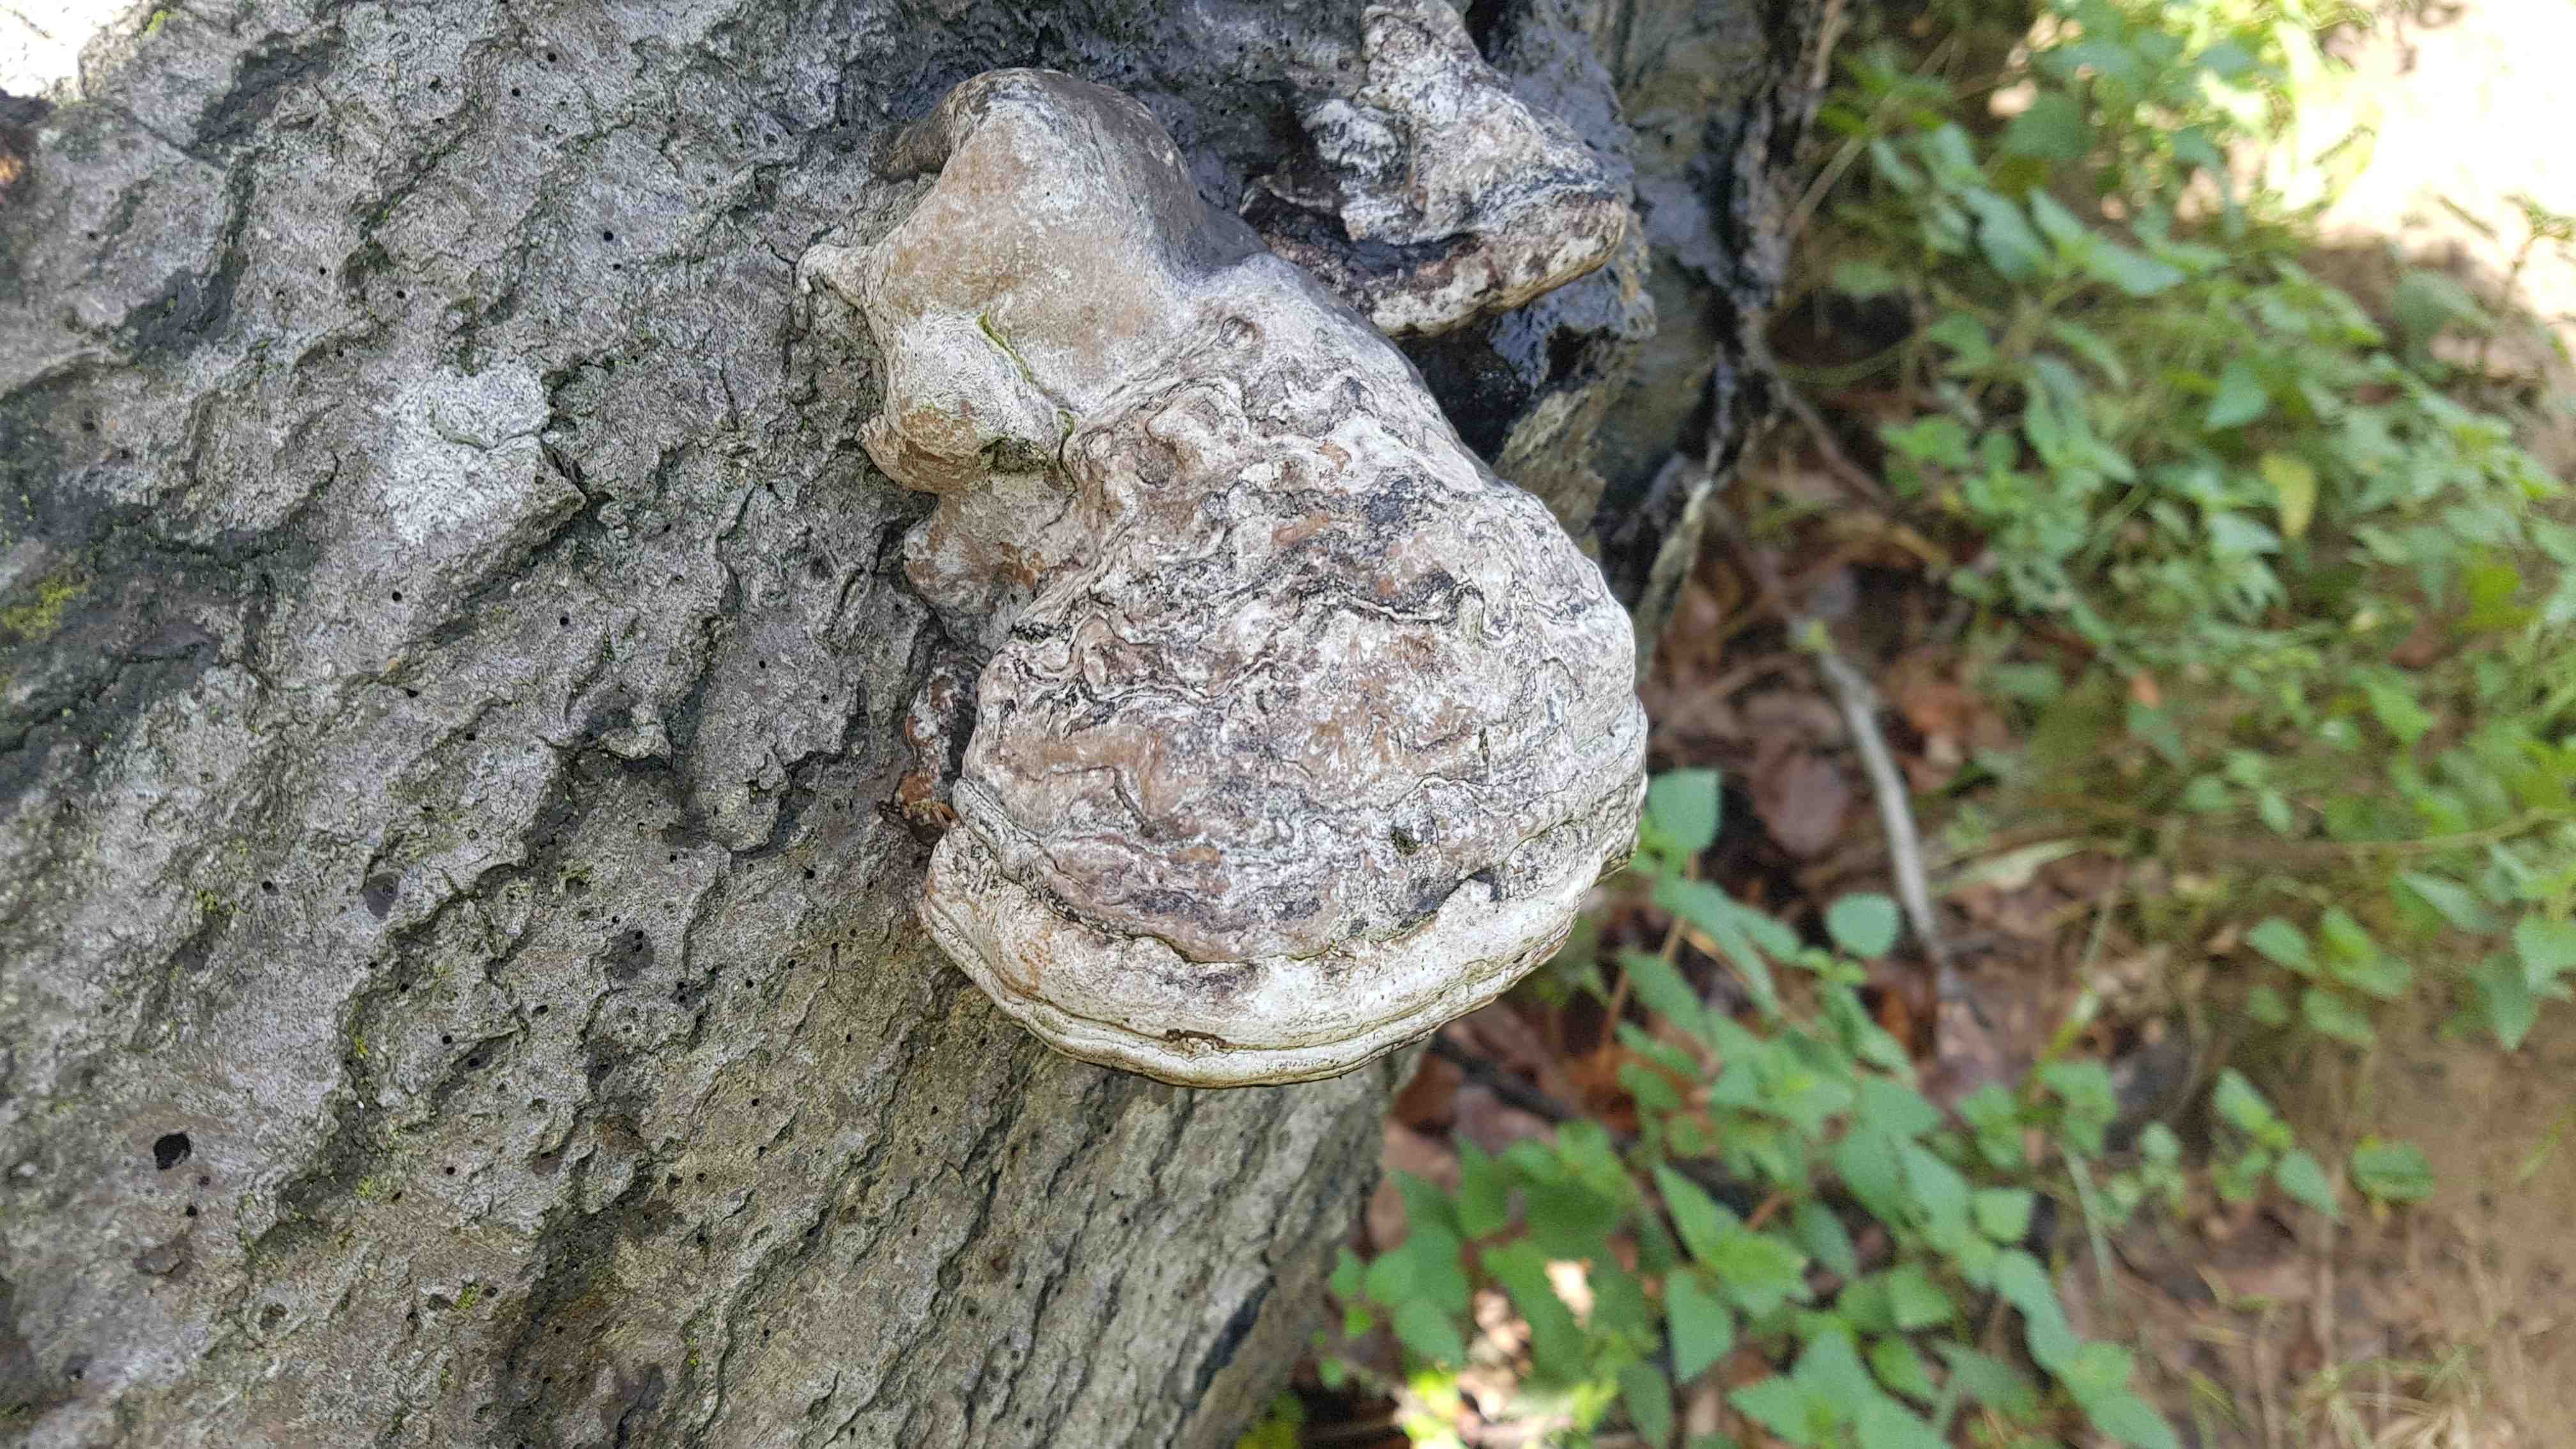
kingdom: Fungi
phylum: Basidiomycota
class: Agaricomycetes
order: Polyporales
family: Polyporaceae
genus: Fomes
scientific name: Fomes fomentarius
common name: tøndersvamp
